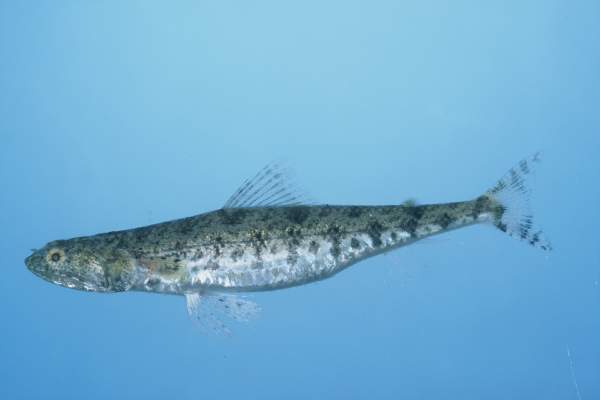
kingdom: Animalia
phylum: Chordata
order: Aulopiformes
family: Synodontidae
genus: Saurida
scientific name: Saurida gracilis
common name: Slender lizardfish
